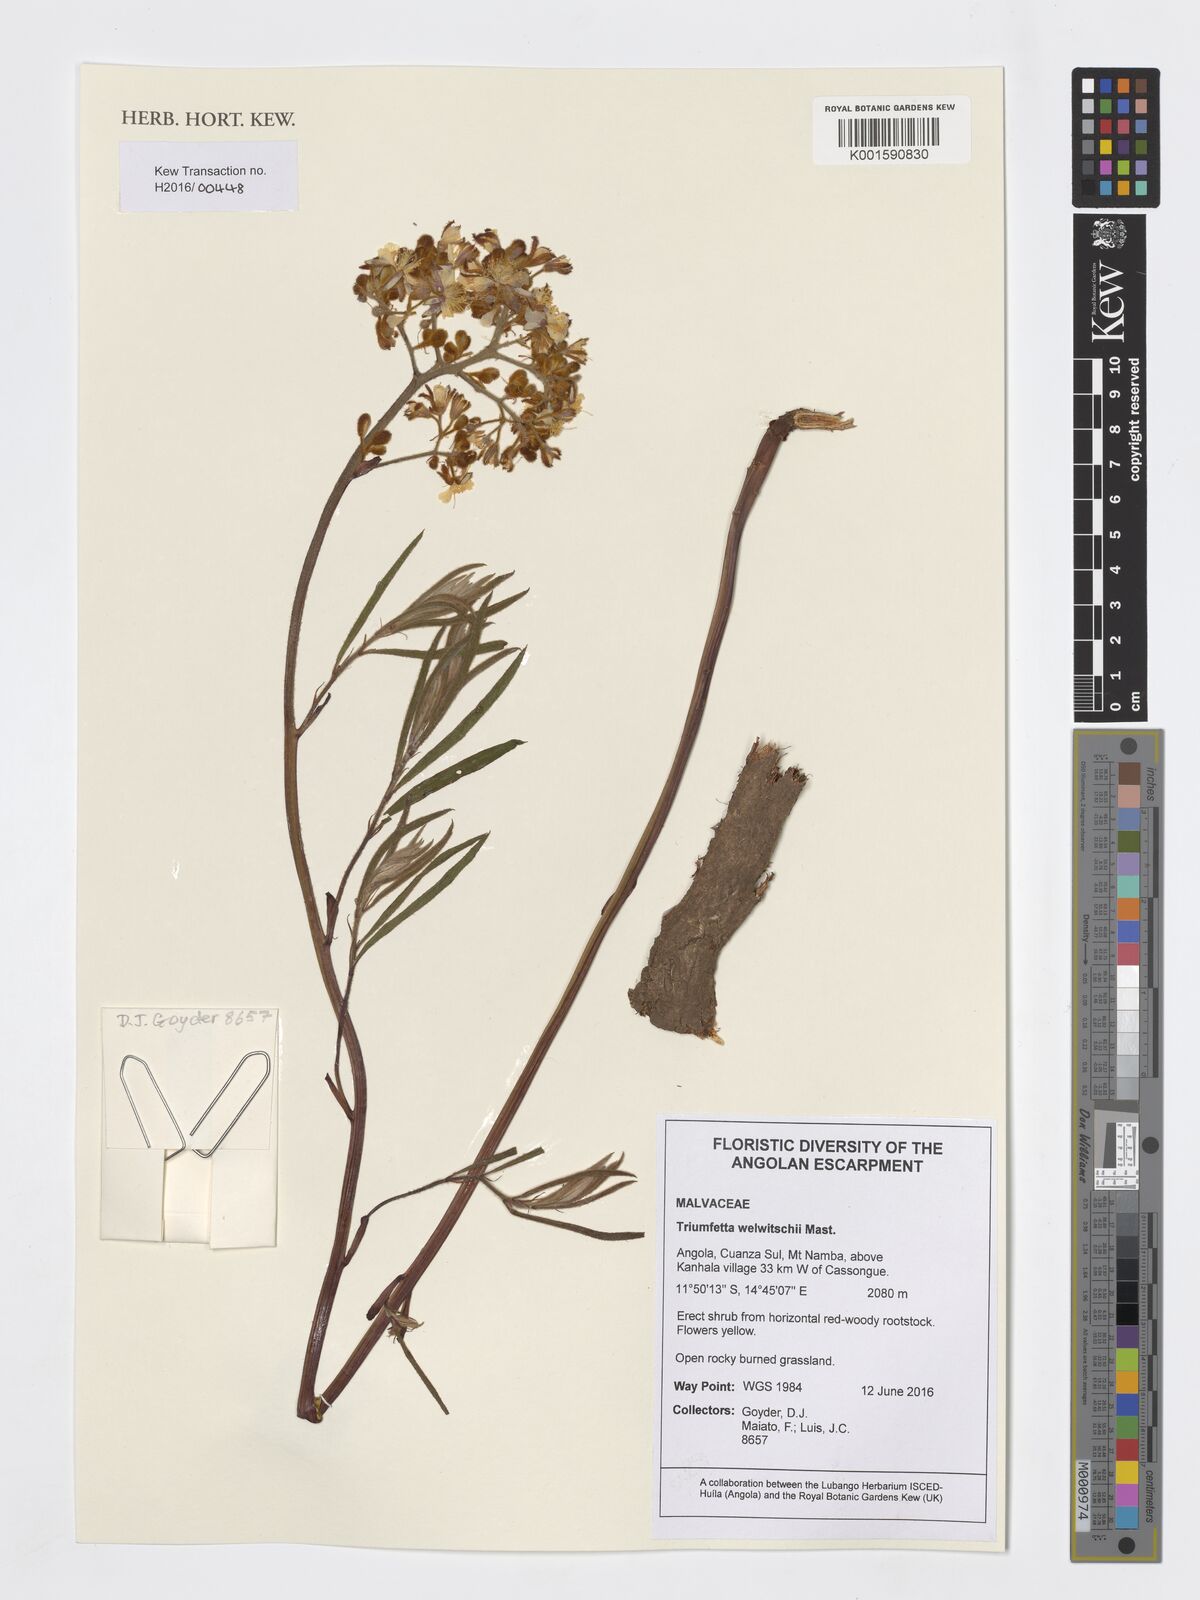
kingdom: Plantae
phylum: Tracheophyta
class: Magnoliopsida
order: Malvales
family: Malvaceae
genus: Triumfetta
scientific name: Triumfetta welwitschii
